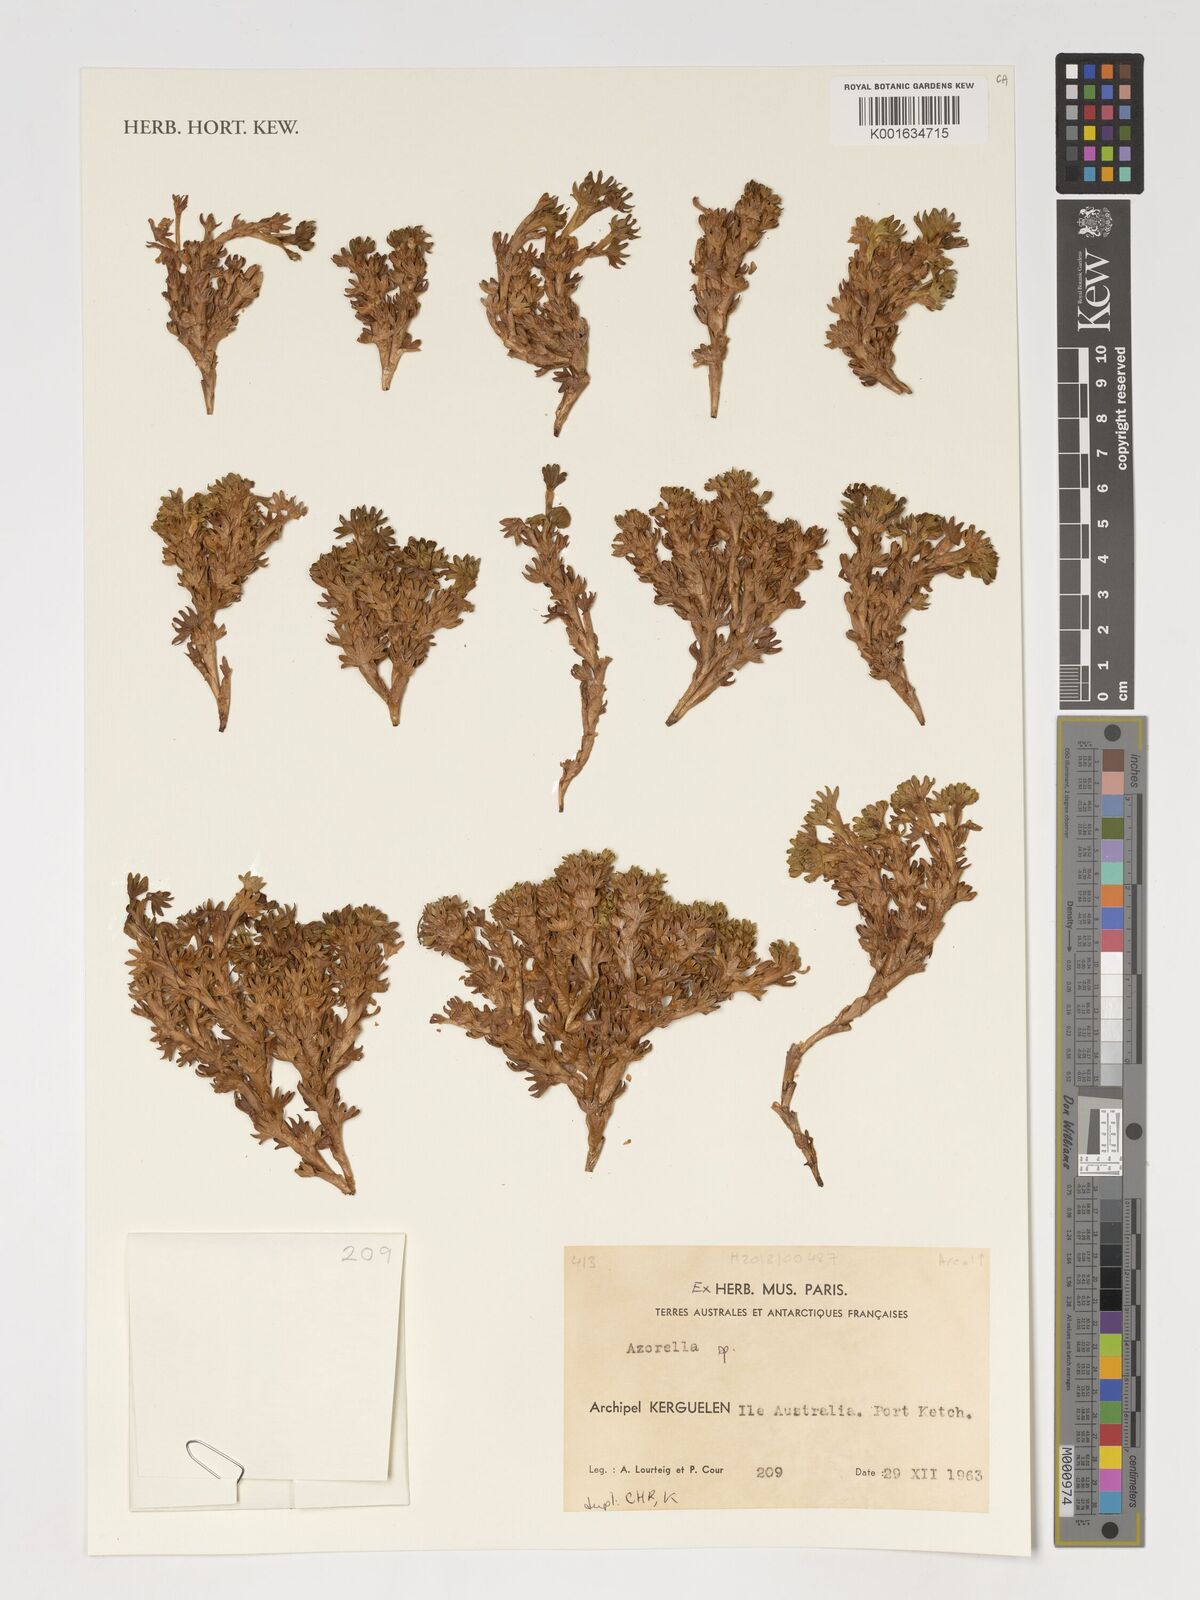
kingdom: Plantae
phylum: Tracheophyta
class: Magnoliopsida
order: Apiales
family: Apiaceae
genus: Azorella
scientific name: Azorella
